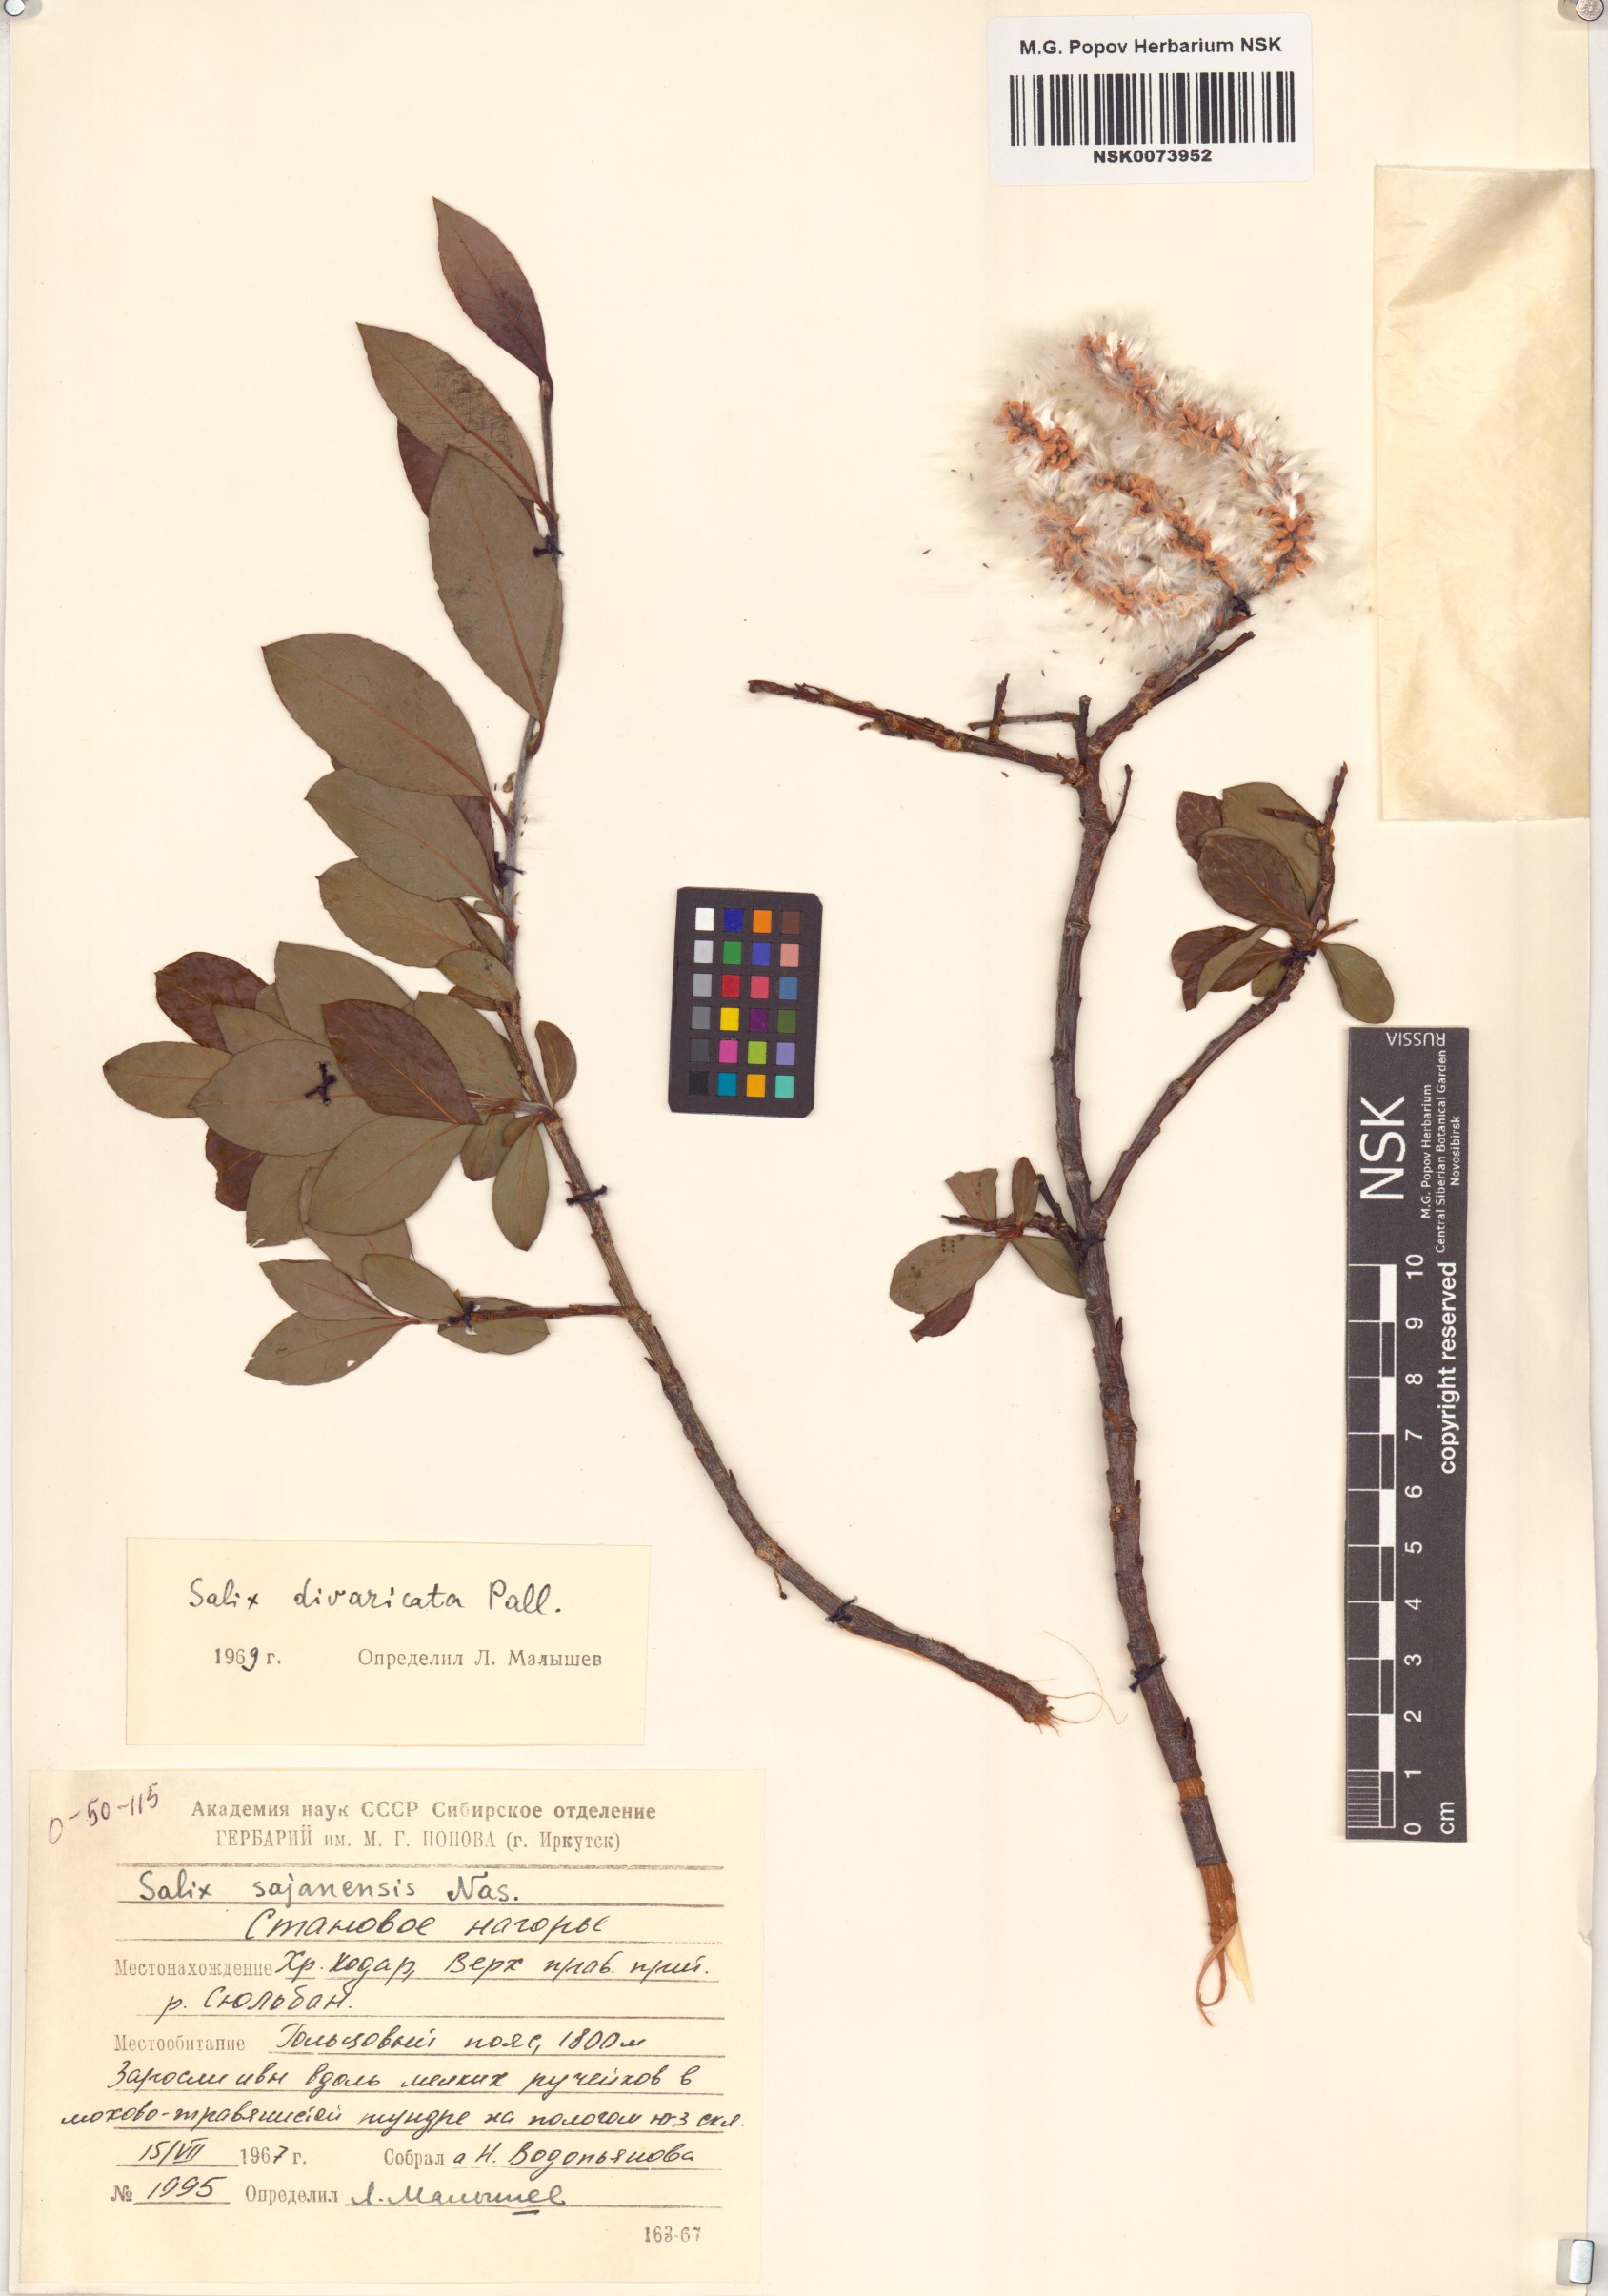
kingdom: Plantae
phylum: Tracheophyta
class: Magnoliopsida
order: Malpighiales
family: Salicaceae
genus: Salix
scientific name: Salix divaricata
